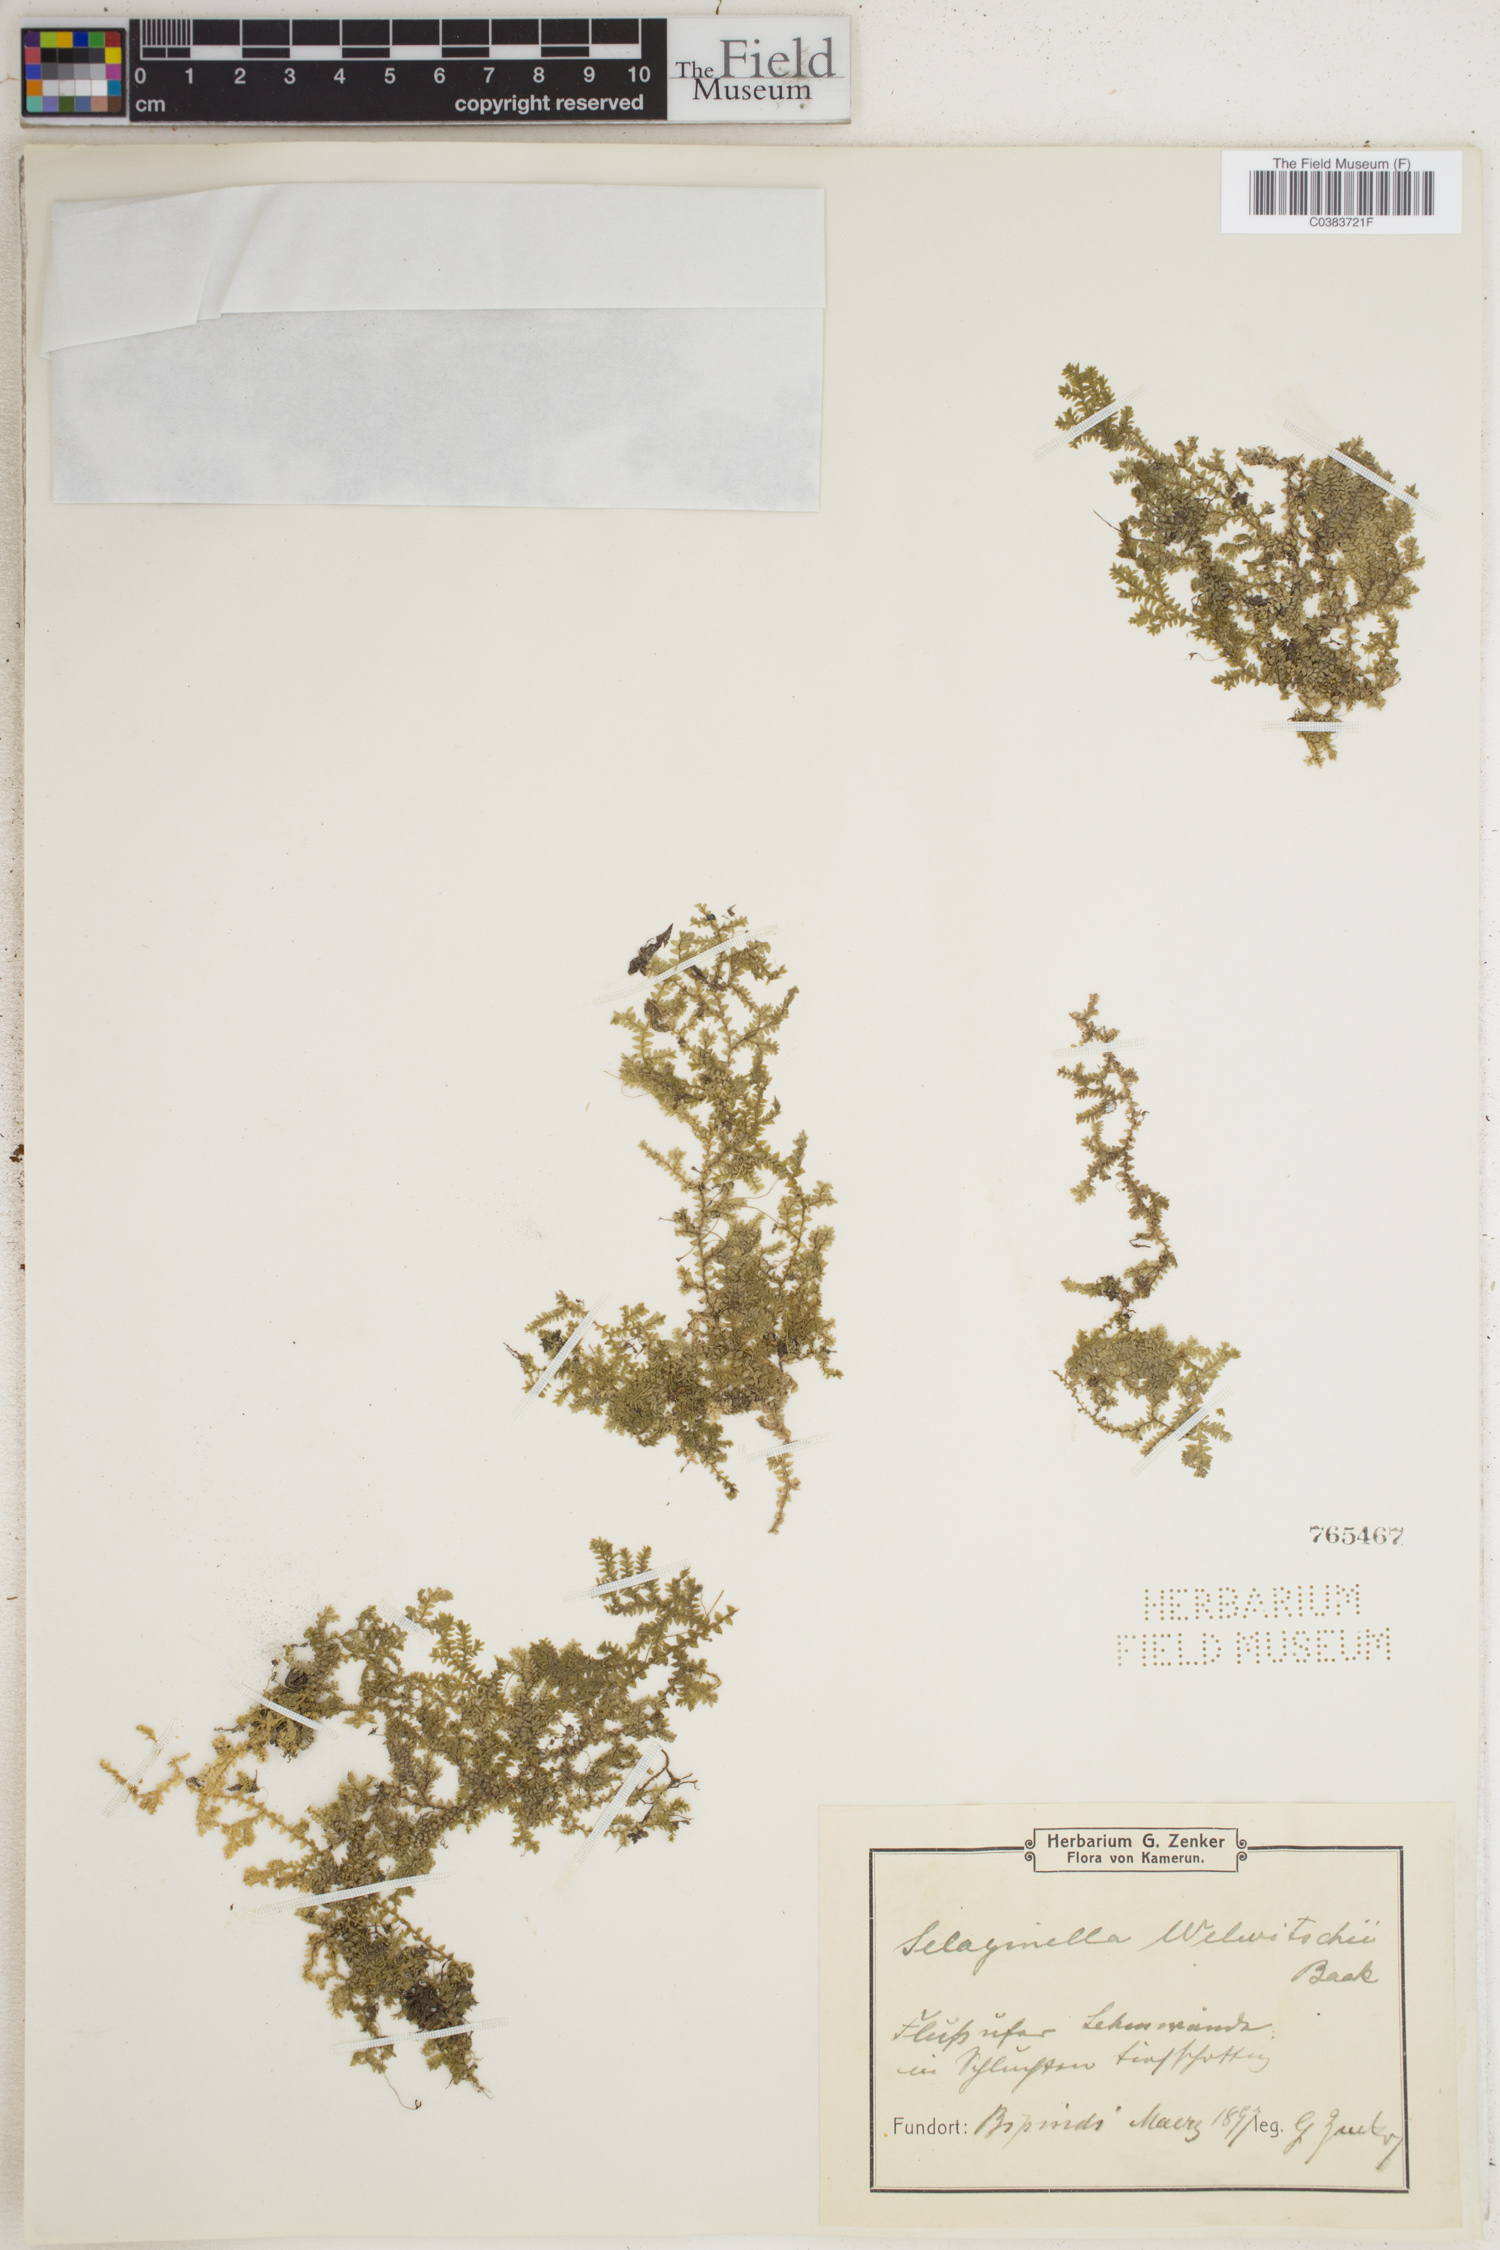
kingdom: Plantae
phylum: Tracheophyta
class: Lycopodiopsida
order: Selaginellales
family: Selaginellaceae
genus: Selaginella
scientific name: Selaginella mittenii
